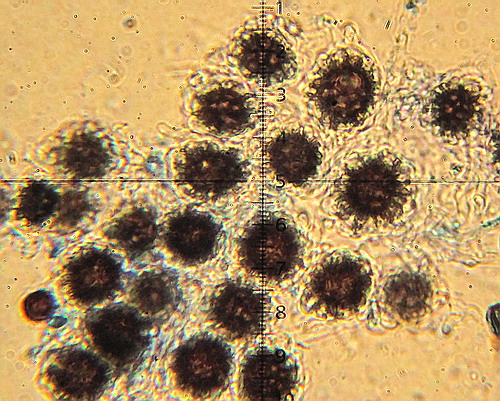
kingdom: Fungi
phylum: Basidiomycota
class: Agaricomycetes
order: Boletales
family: Sclerodermataceae
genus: Scleroderma
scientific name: Scleroderma bovista
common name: bovist-bruskbold
